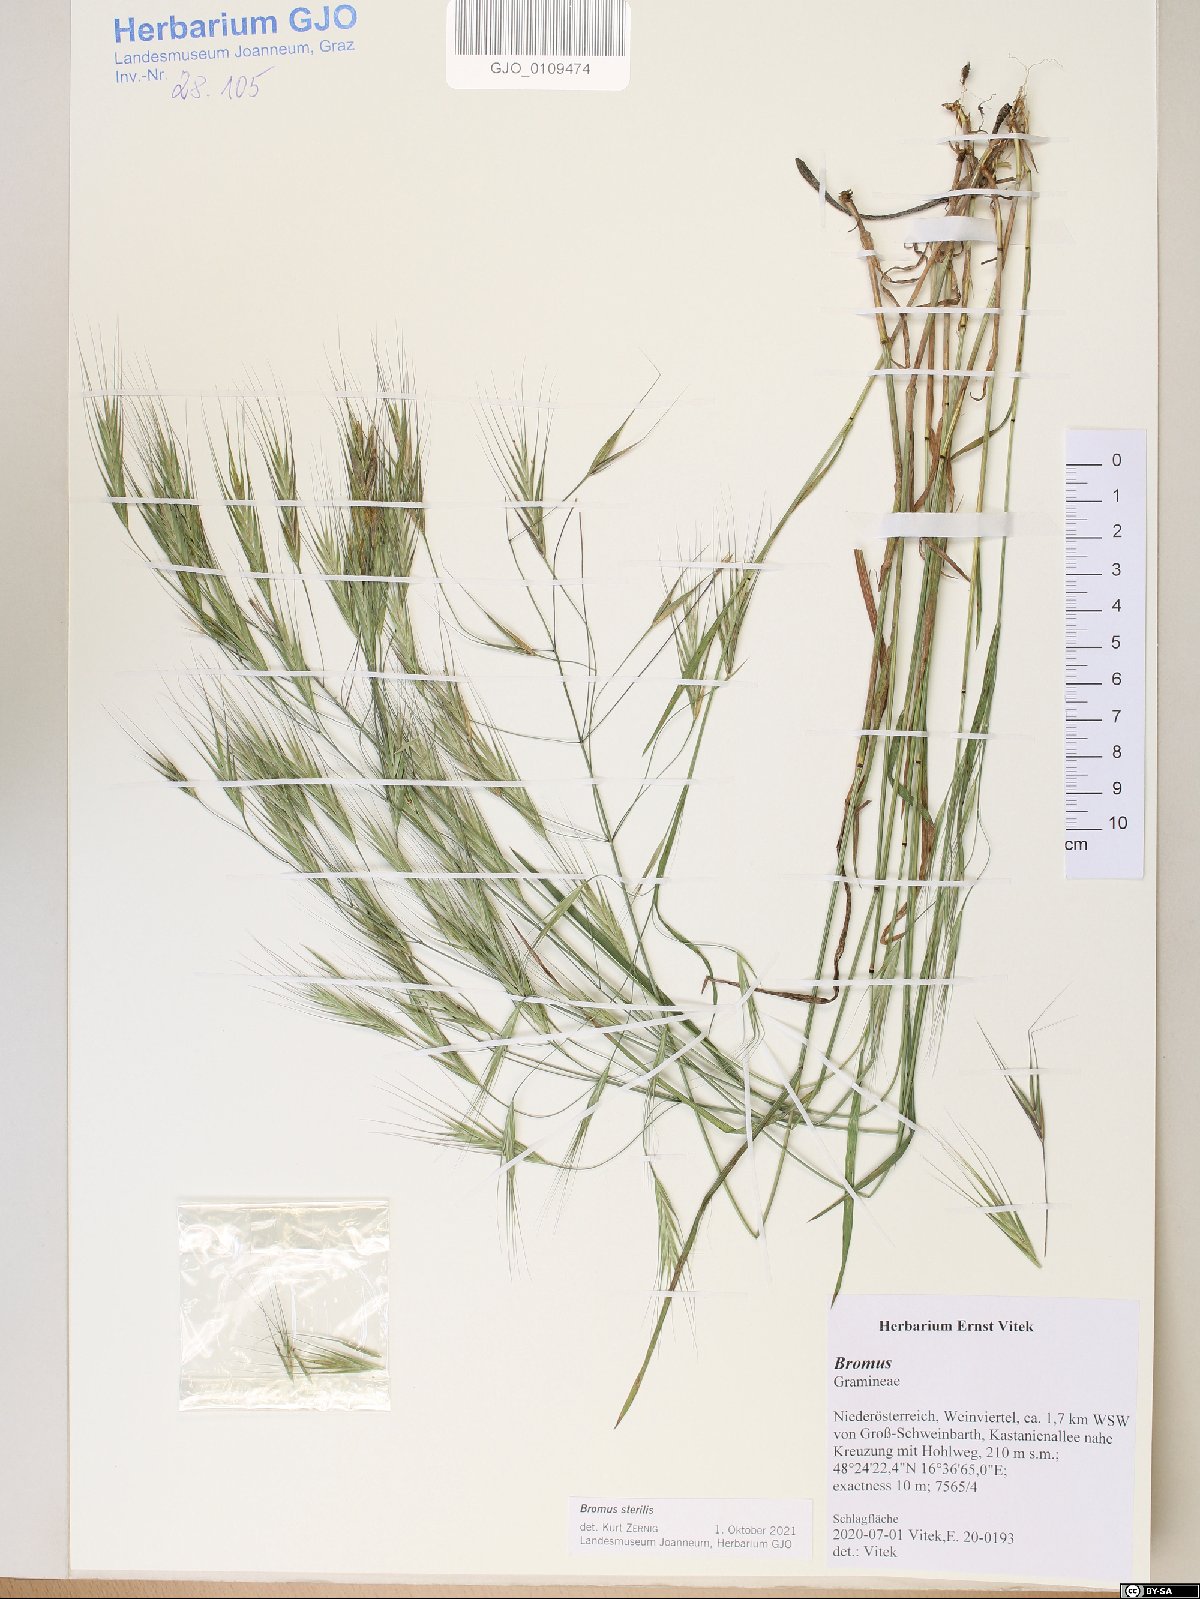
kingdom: Plantae
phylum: Tracheophyta
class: Liliopsida
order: Poales
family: Poaceae
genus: Bromus
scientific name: Bromus sterilis
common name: Poverty brome
